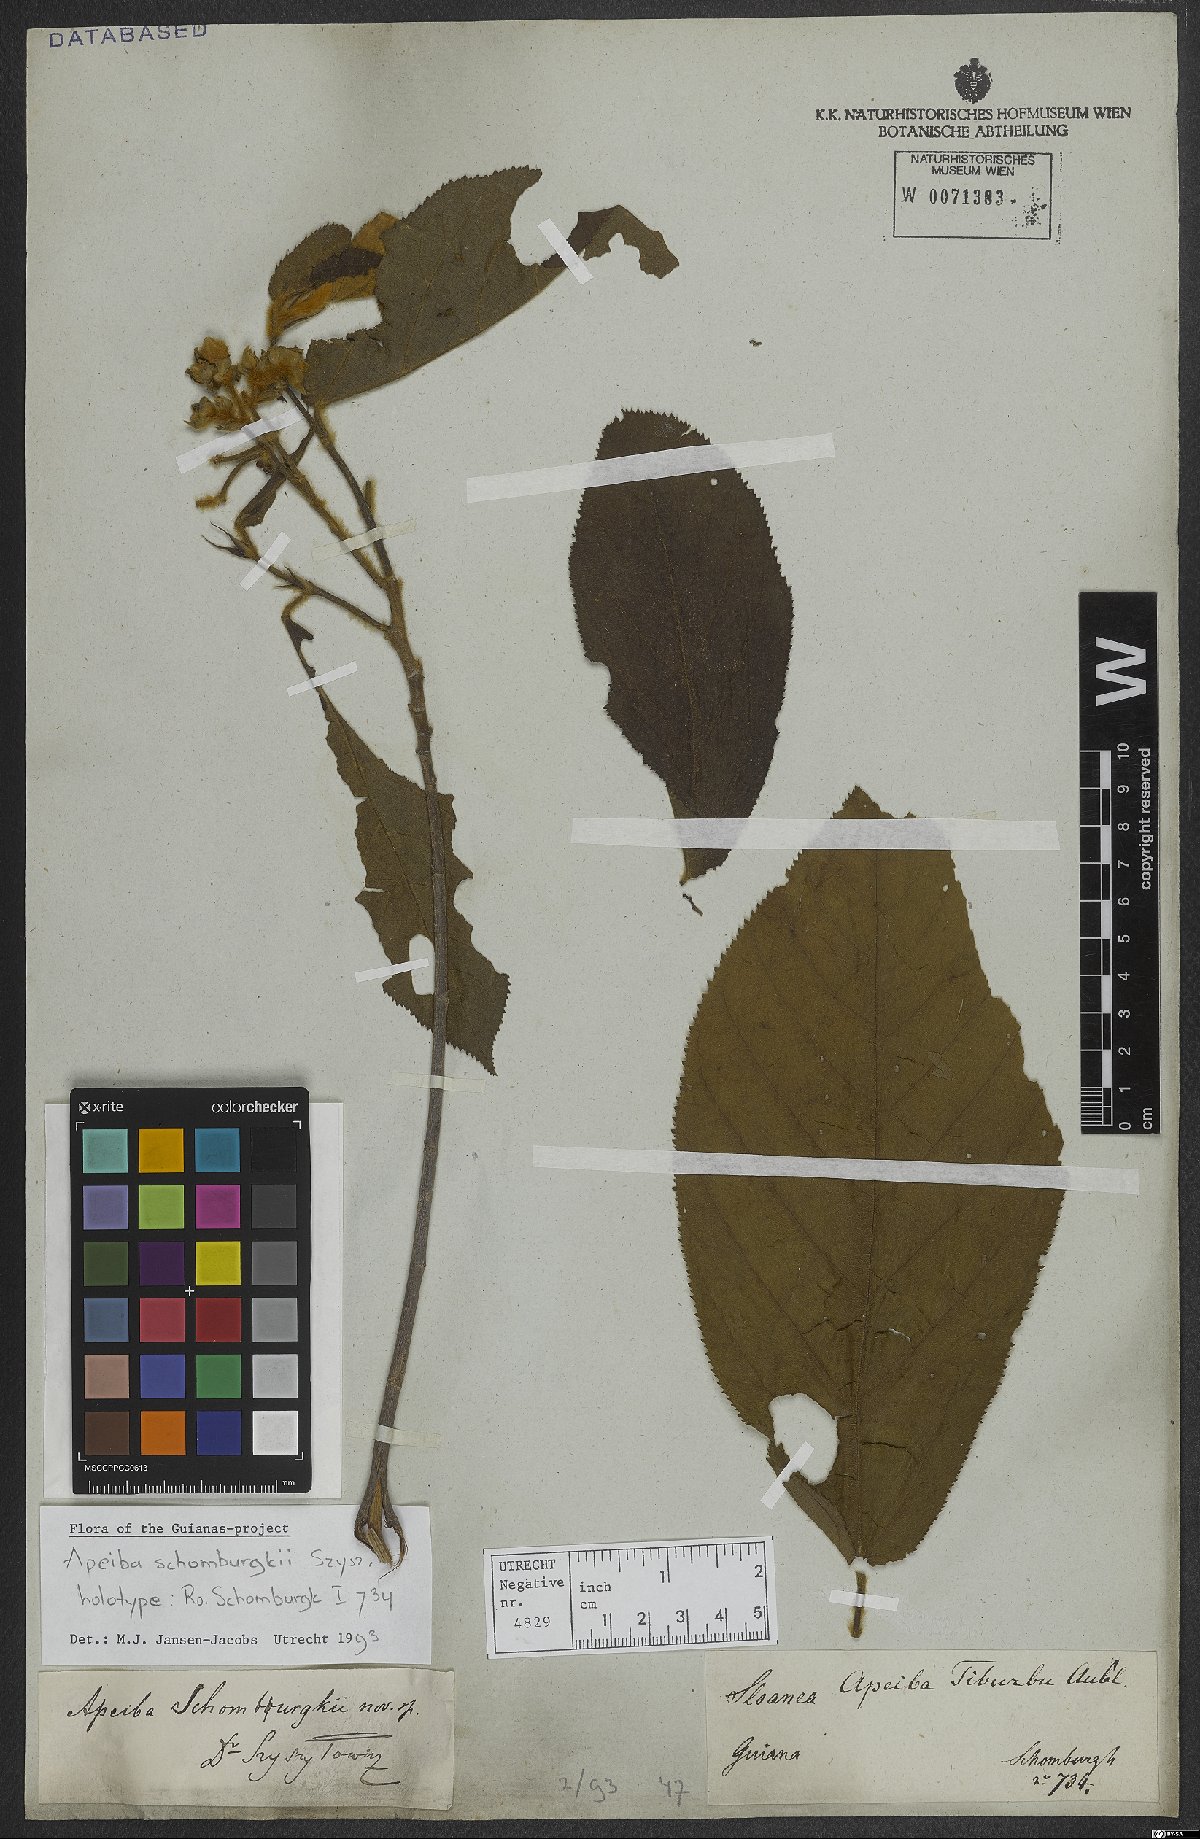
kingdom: Plantae
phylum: Tracheophyta
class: Magnoliopsida
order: Malvales
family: Malvaceae
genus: Apeiba
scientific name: Apeiba schomburgkii
